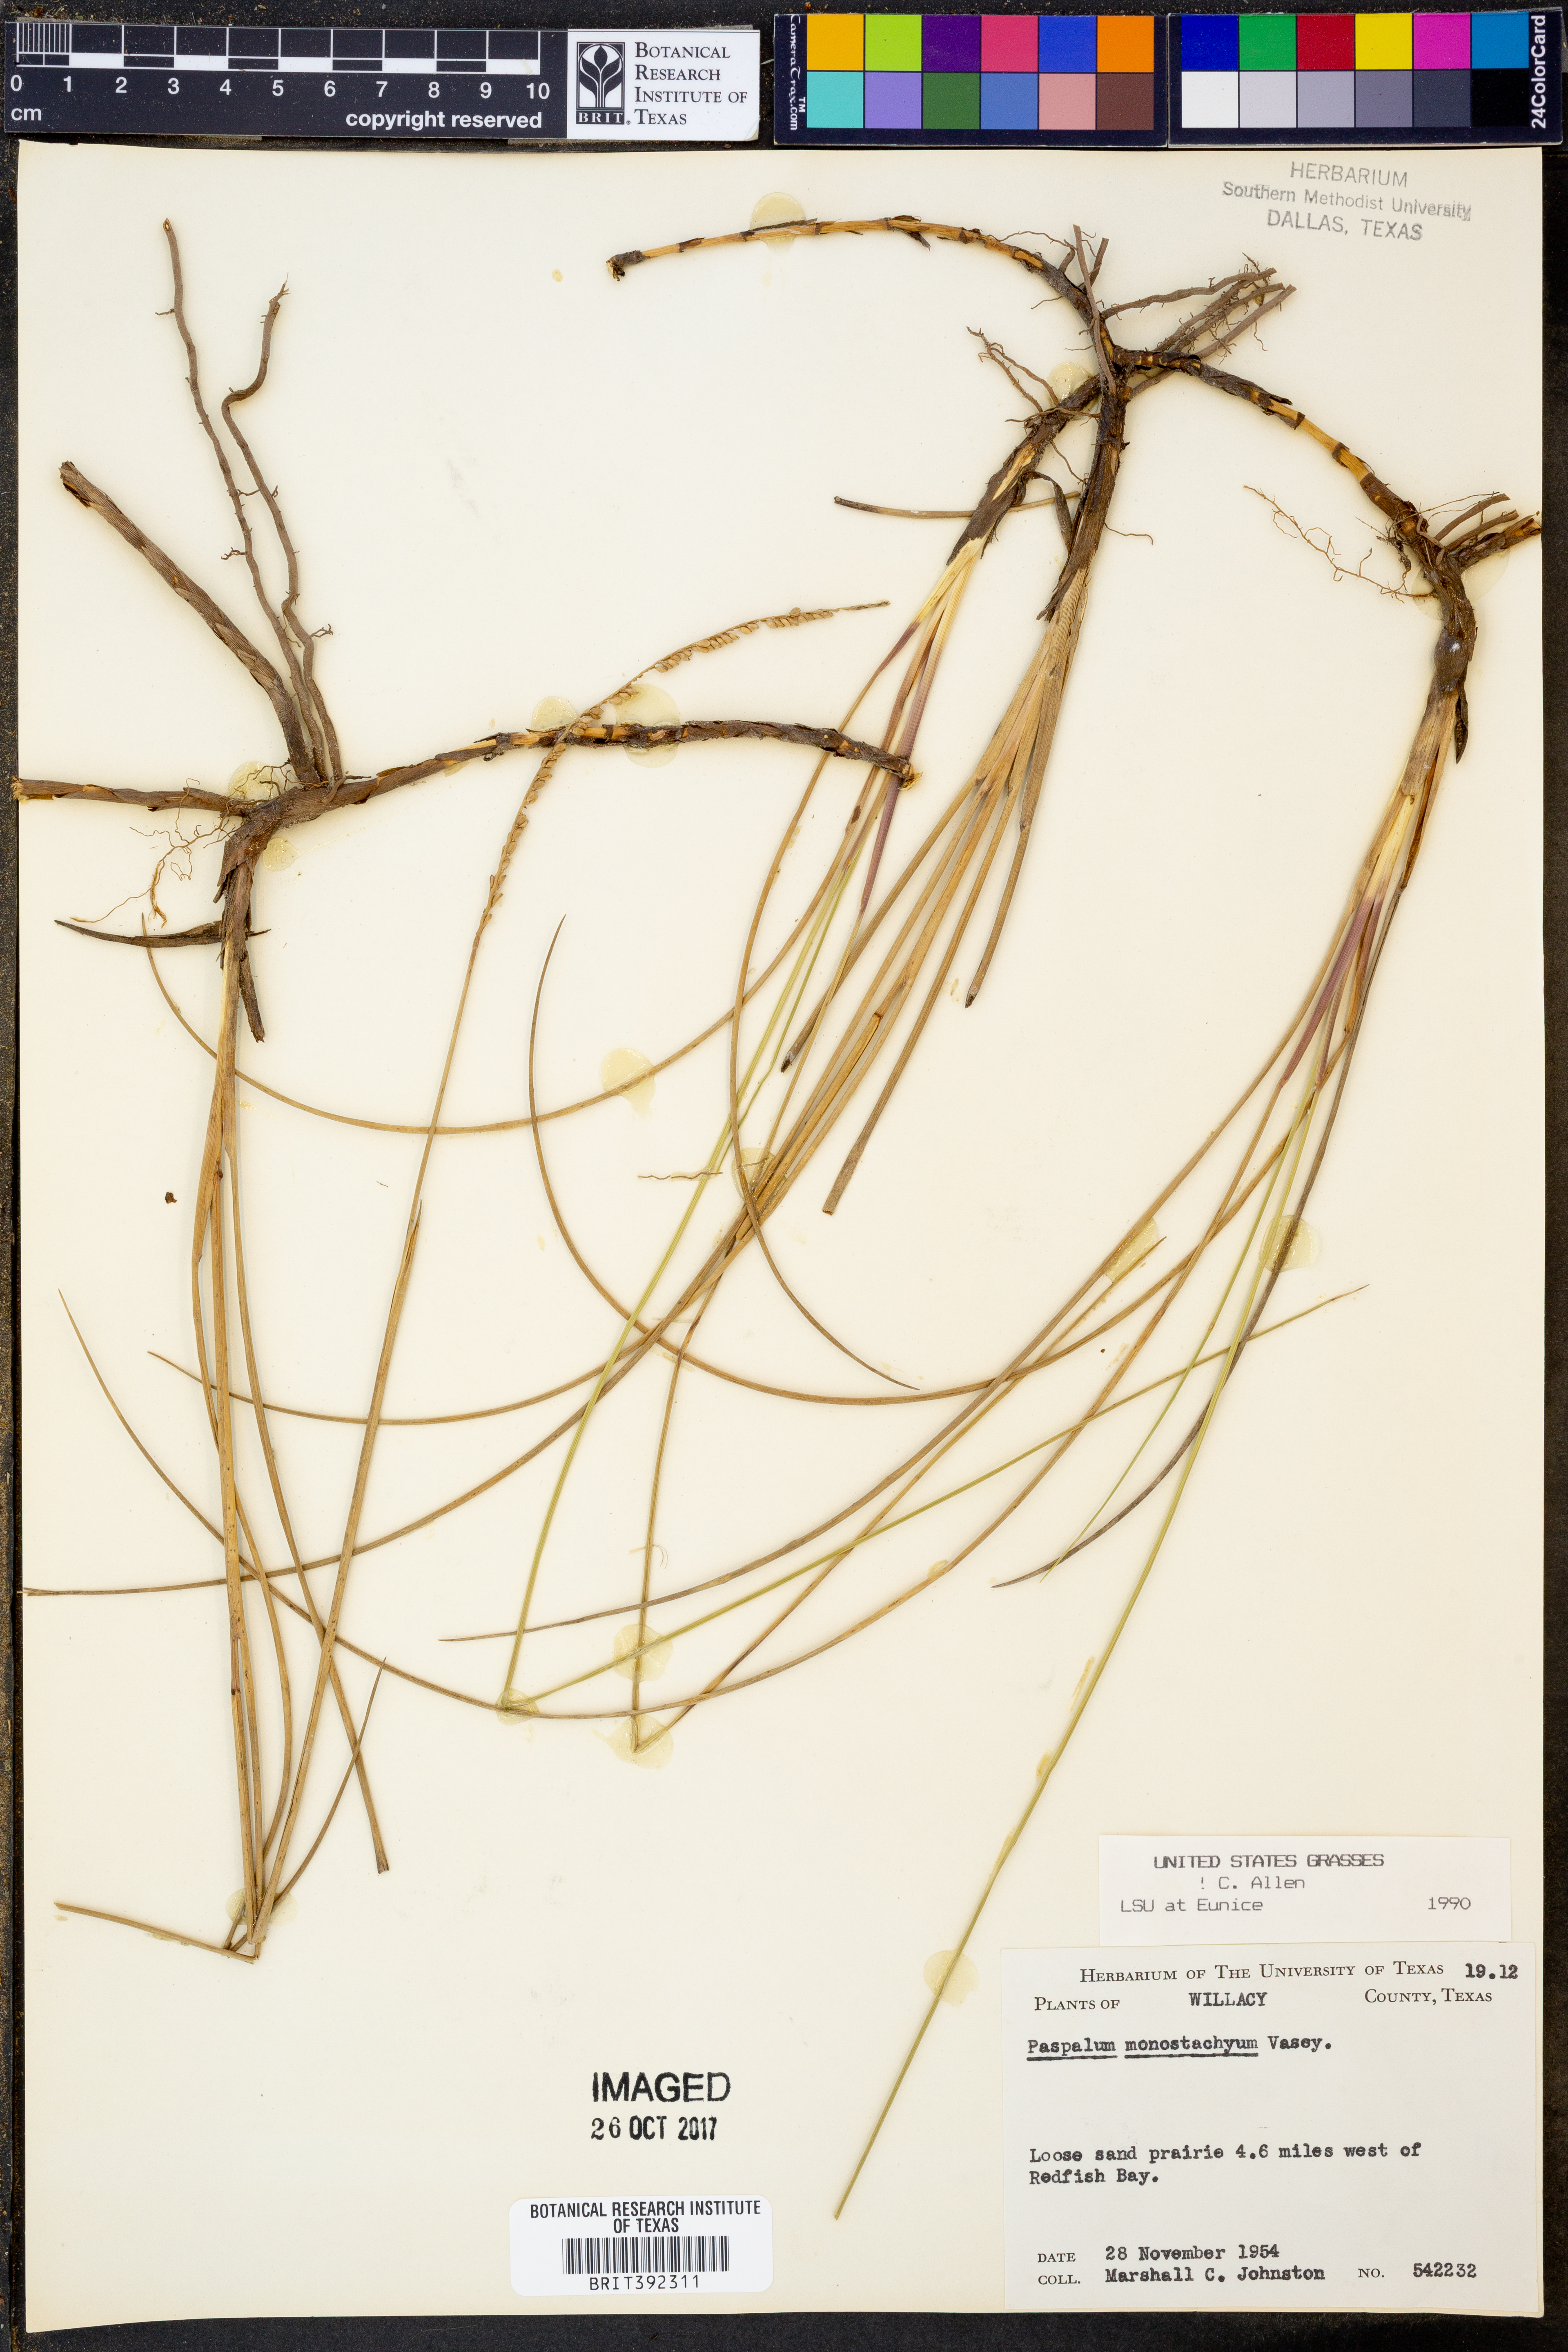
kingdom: Plantae
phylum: Tracheophyta
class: Liliopsida
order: Poales
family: Poaceae
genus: Paspalum
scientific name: Paspalum monostachyum
